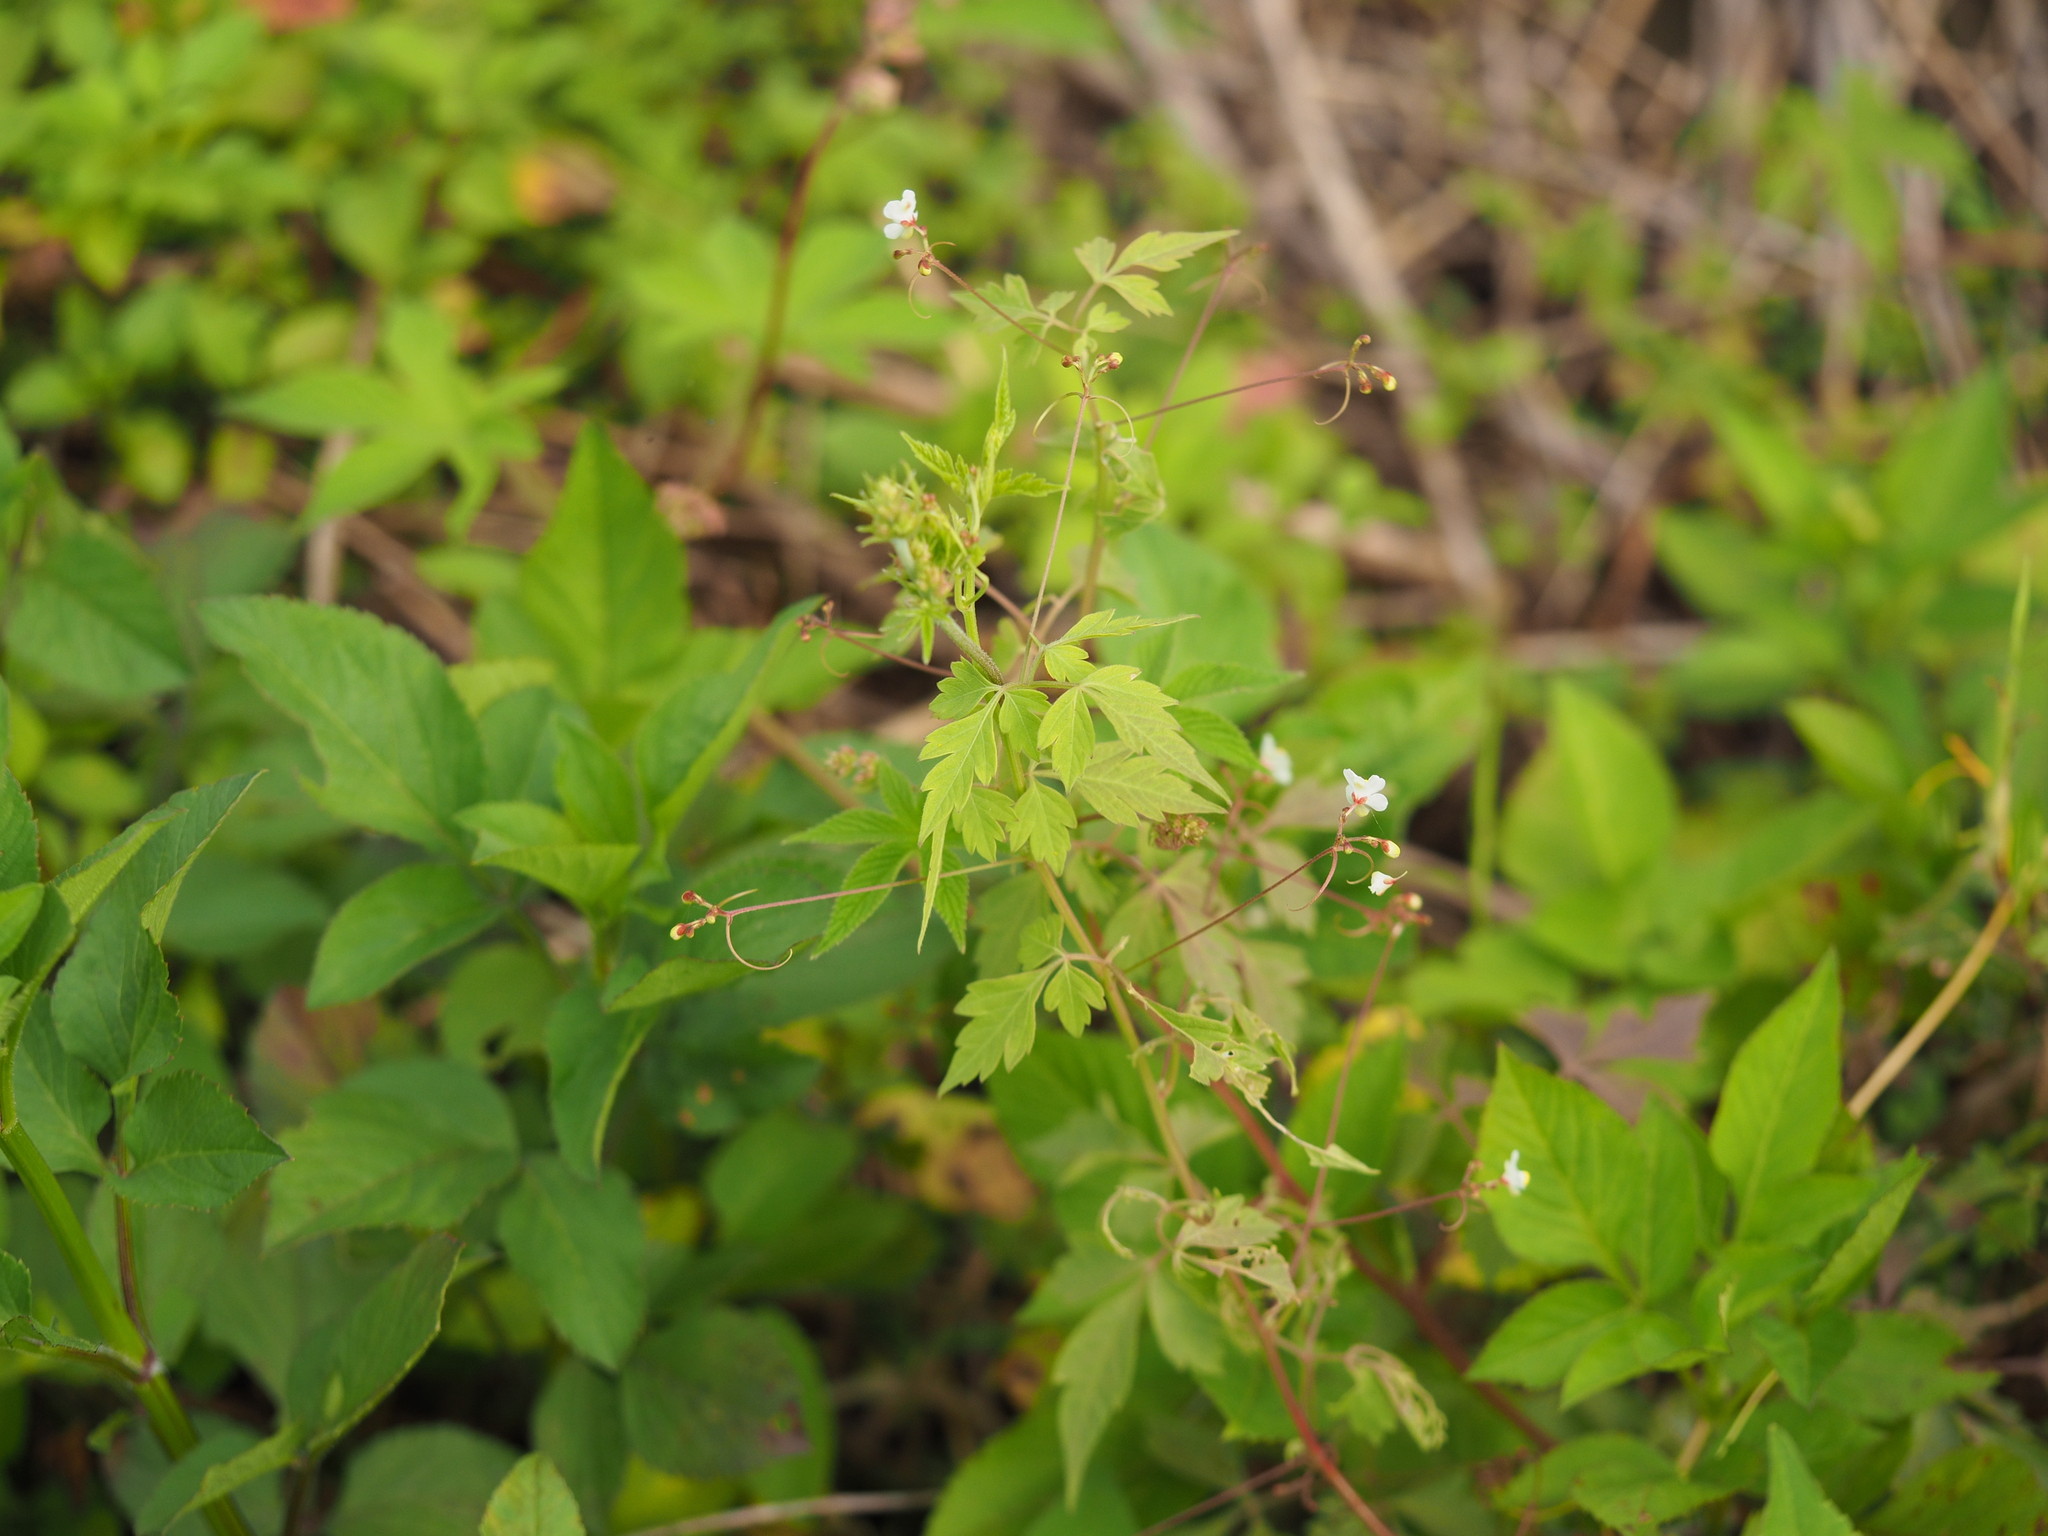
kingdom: Plantae
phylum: Tracheophyta
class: Magnoliopsida
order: Sapindales
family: Sapindaceae
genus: Cardiospermum
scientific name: Cardiospermum halicacabum
